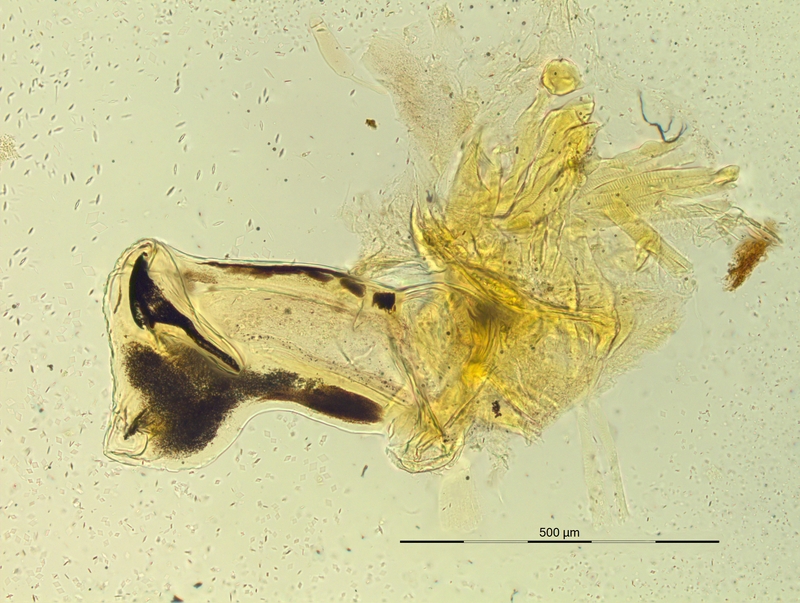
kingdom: Animalia
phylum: Arthropoda
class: Diplopoda
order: Chordeumatida
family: Craspedosomatidae
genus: Pyrgocyphosoma
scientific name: Pyrgocyphosoma savonense
